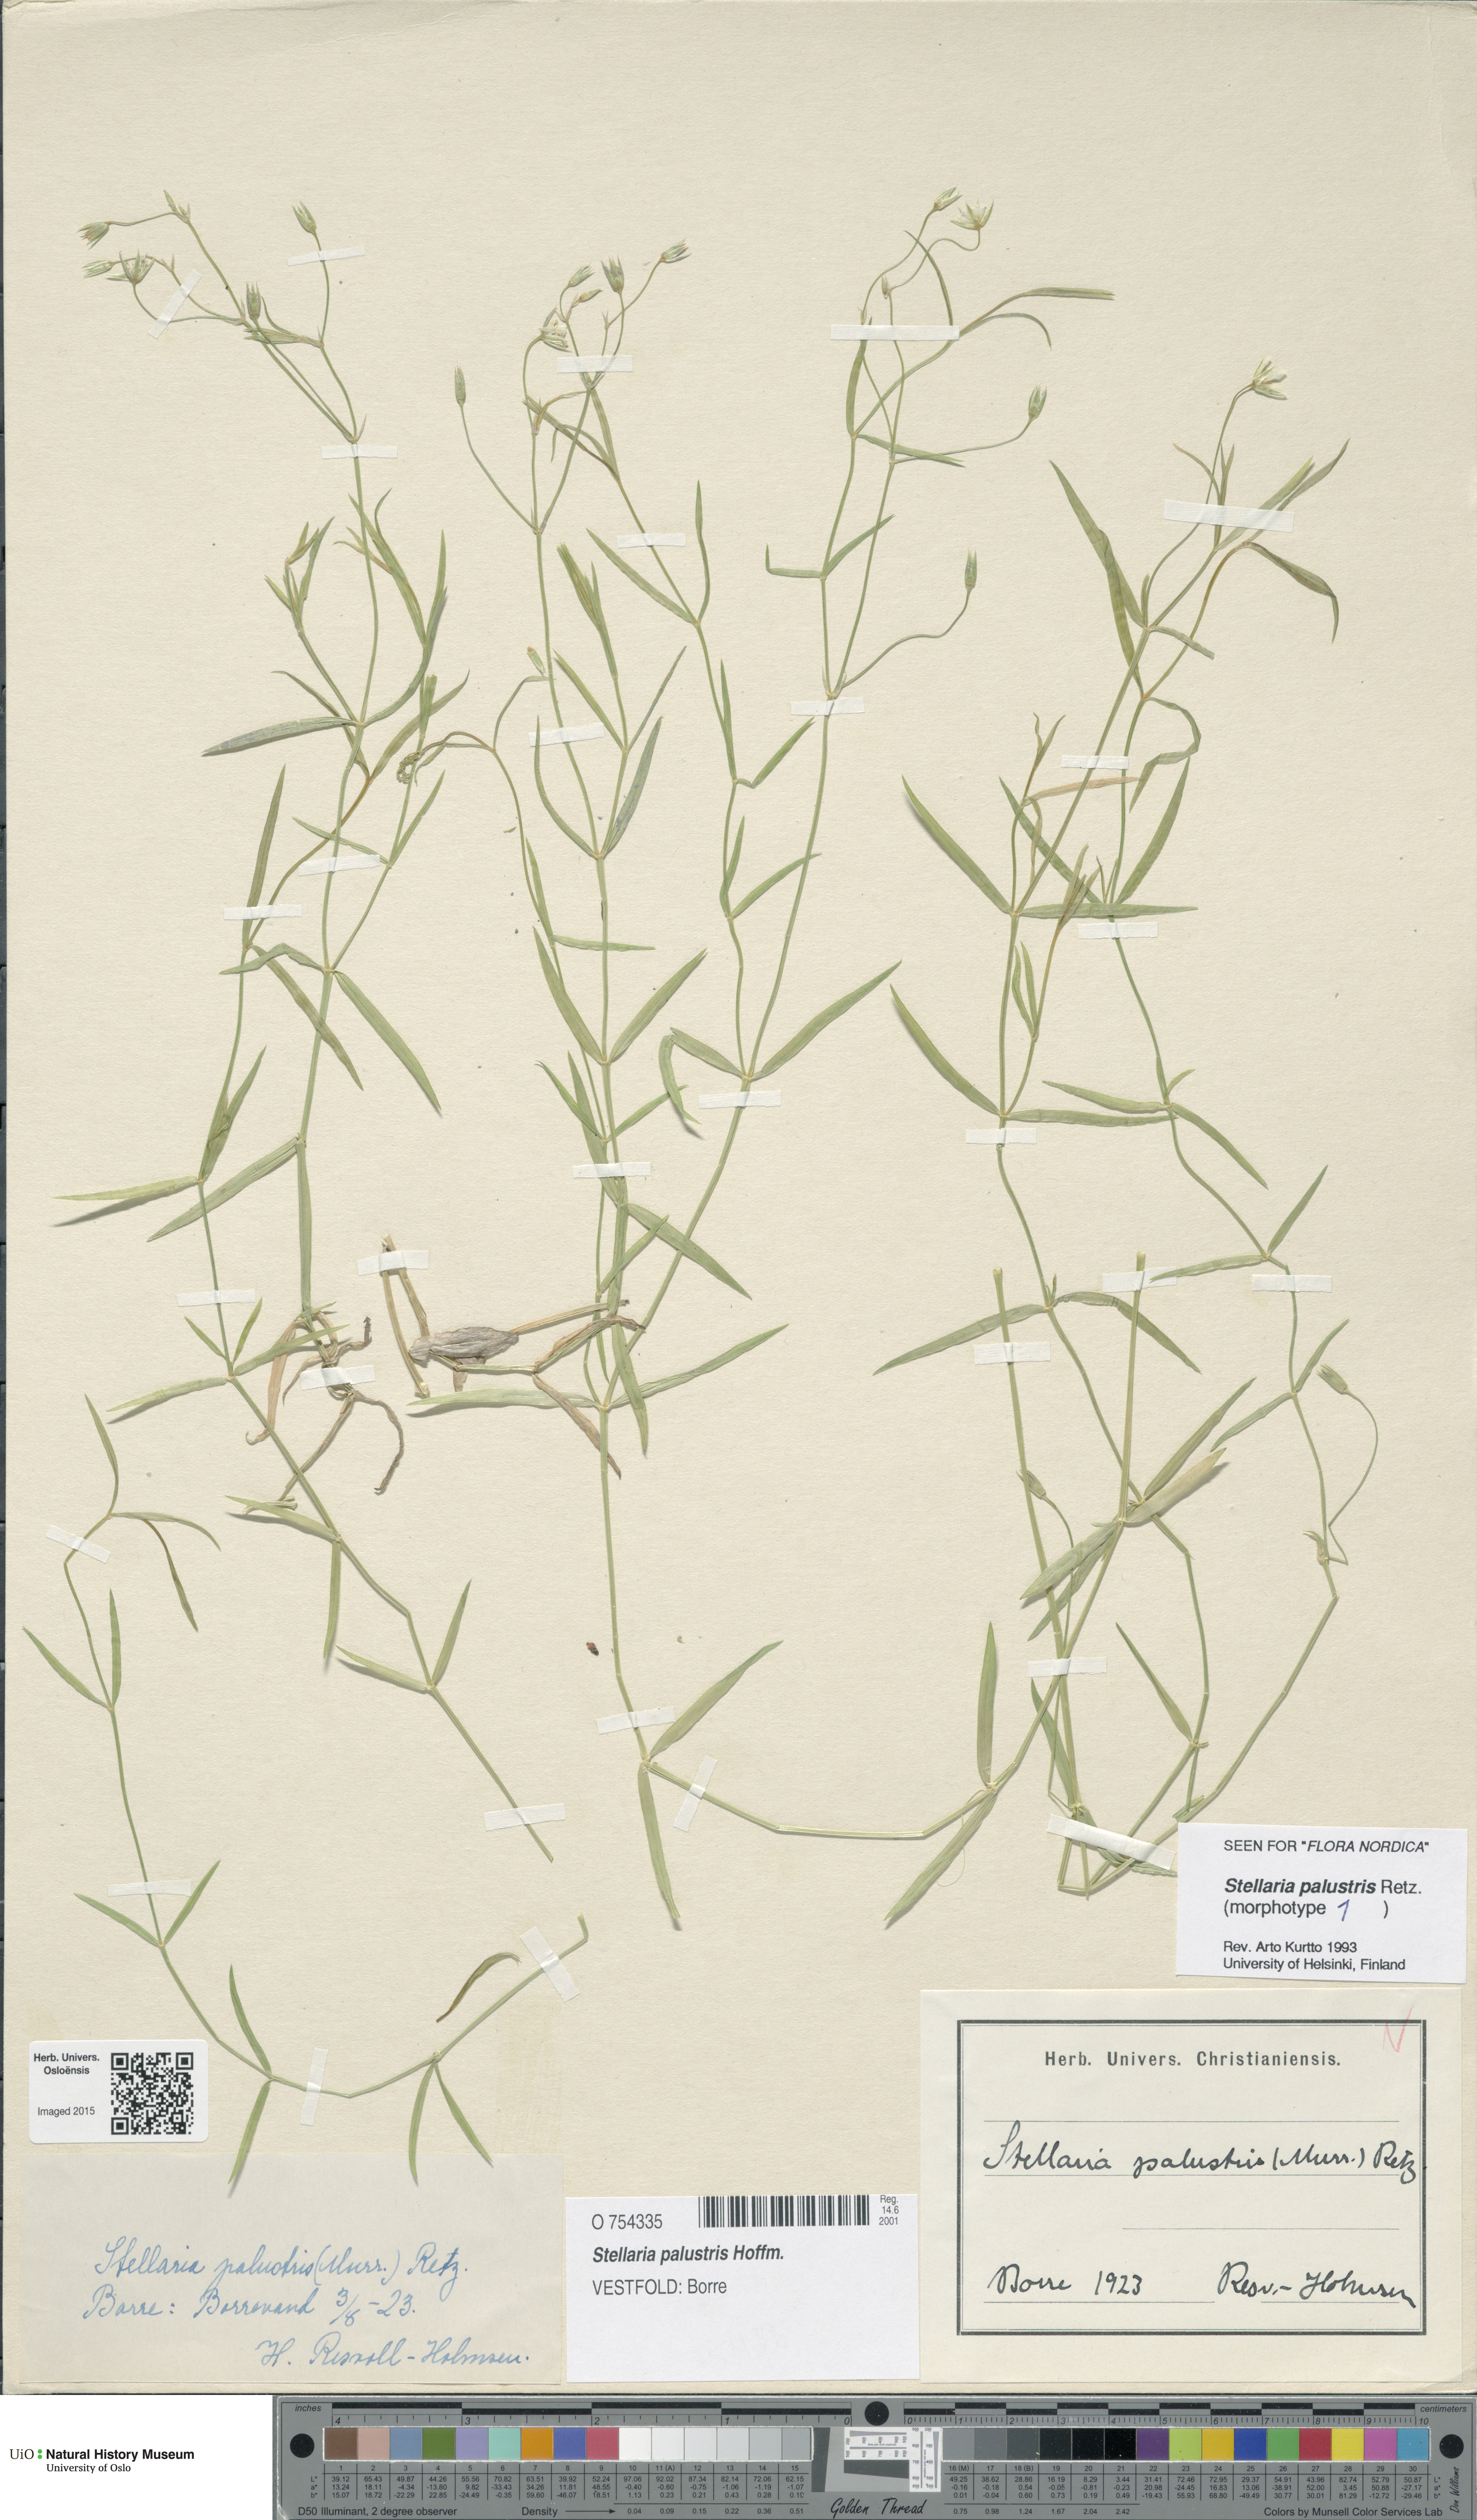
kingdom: Plantae
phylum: Tracheophyta
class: Magnoliopsida
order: Caryophyllales
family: Caryophyllaceae
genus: Stellaria
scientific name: Stellaria palustris
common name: Marsh stitchwort
